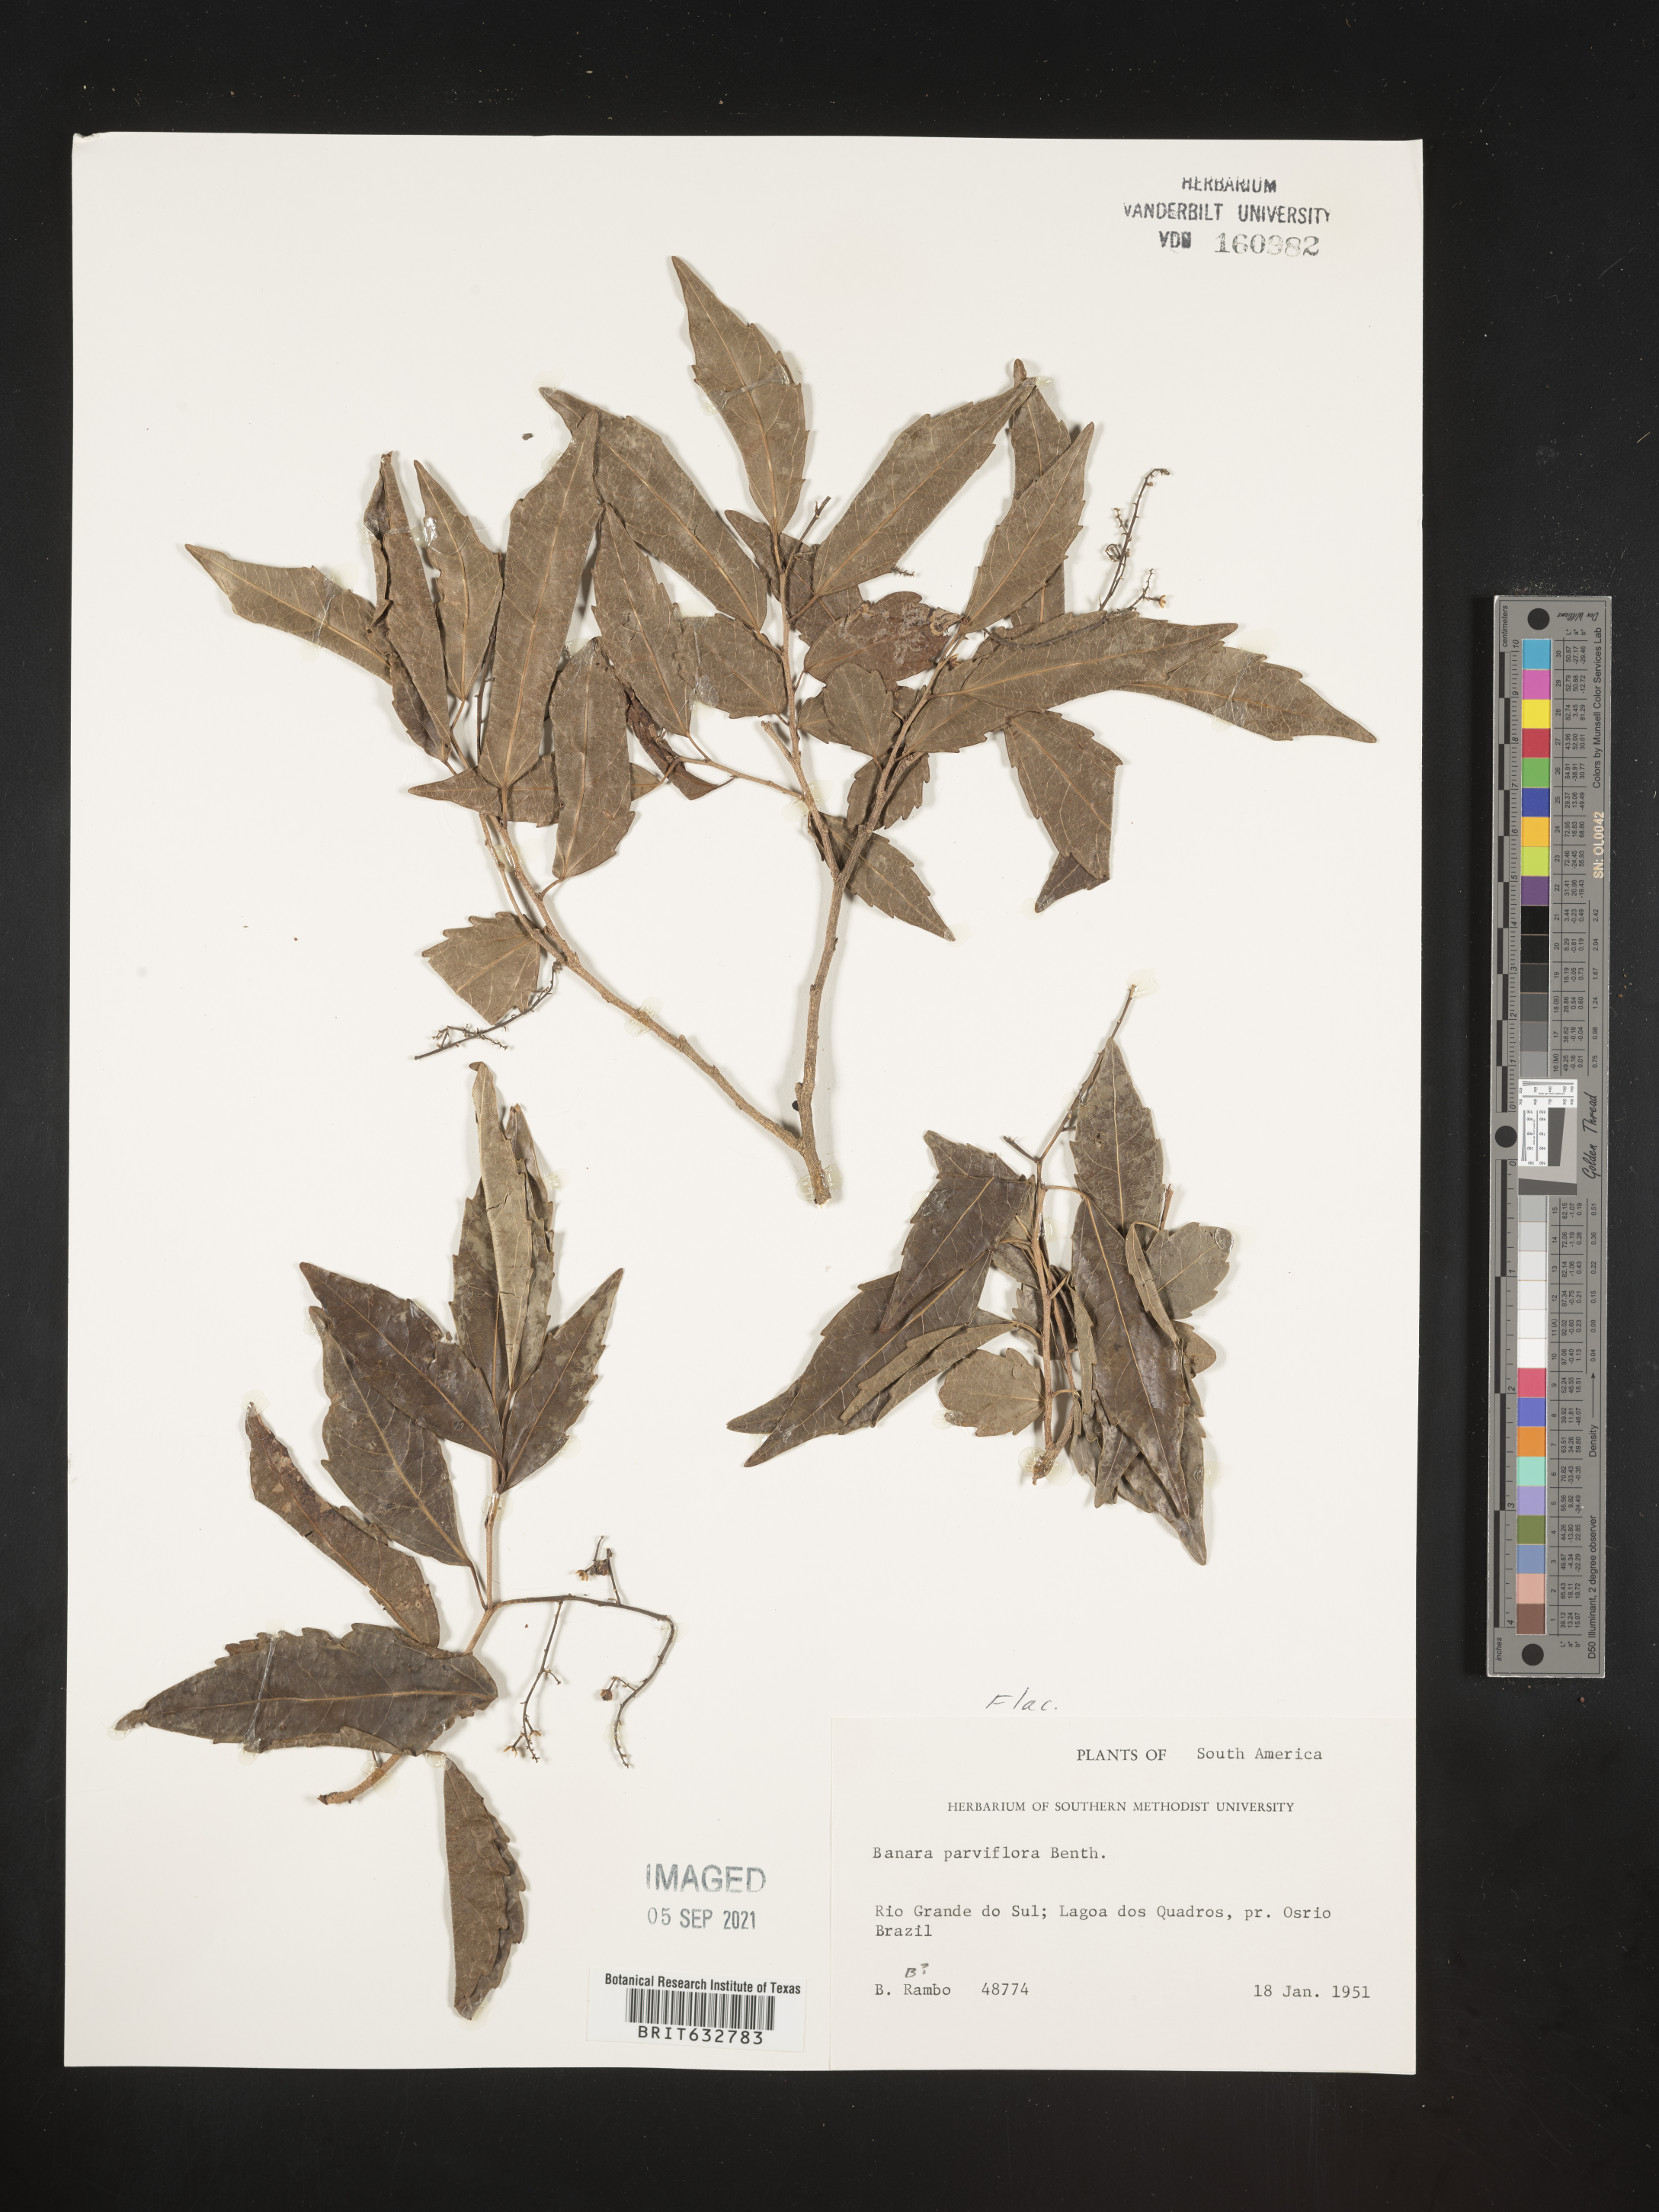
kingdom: Plantae
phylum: Tracheophyta
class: Magnoliopsida
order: Malpighiales
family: Salicaceae
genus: Banara
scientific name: Banara
